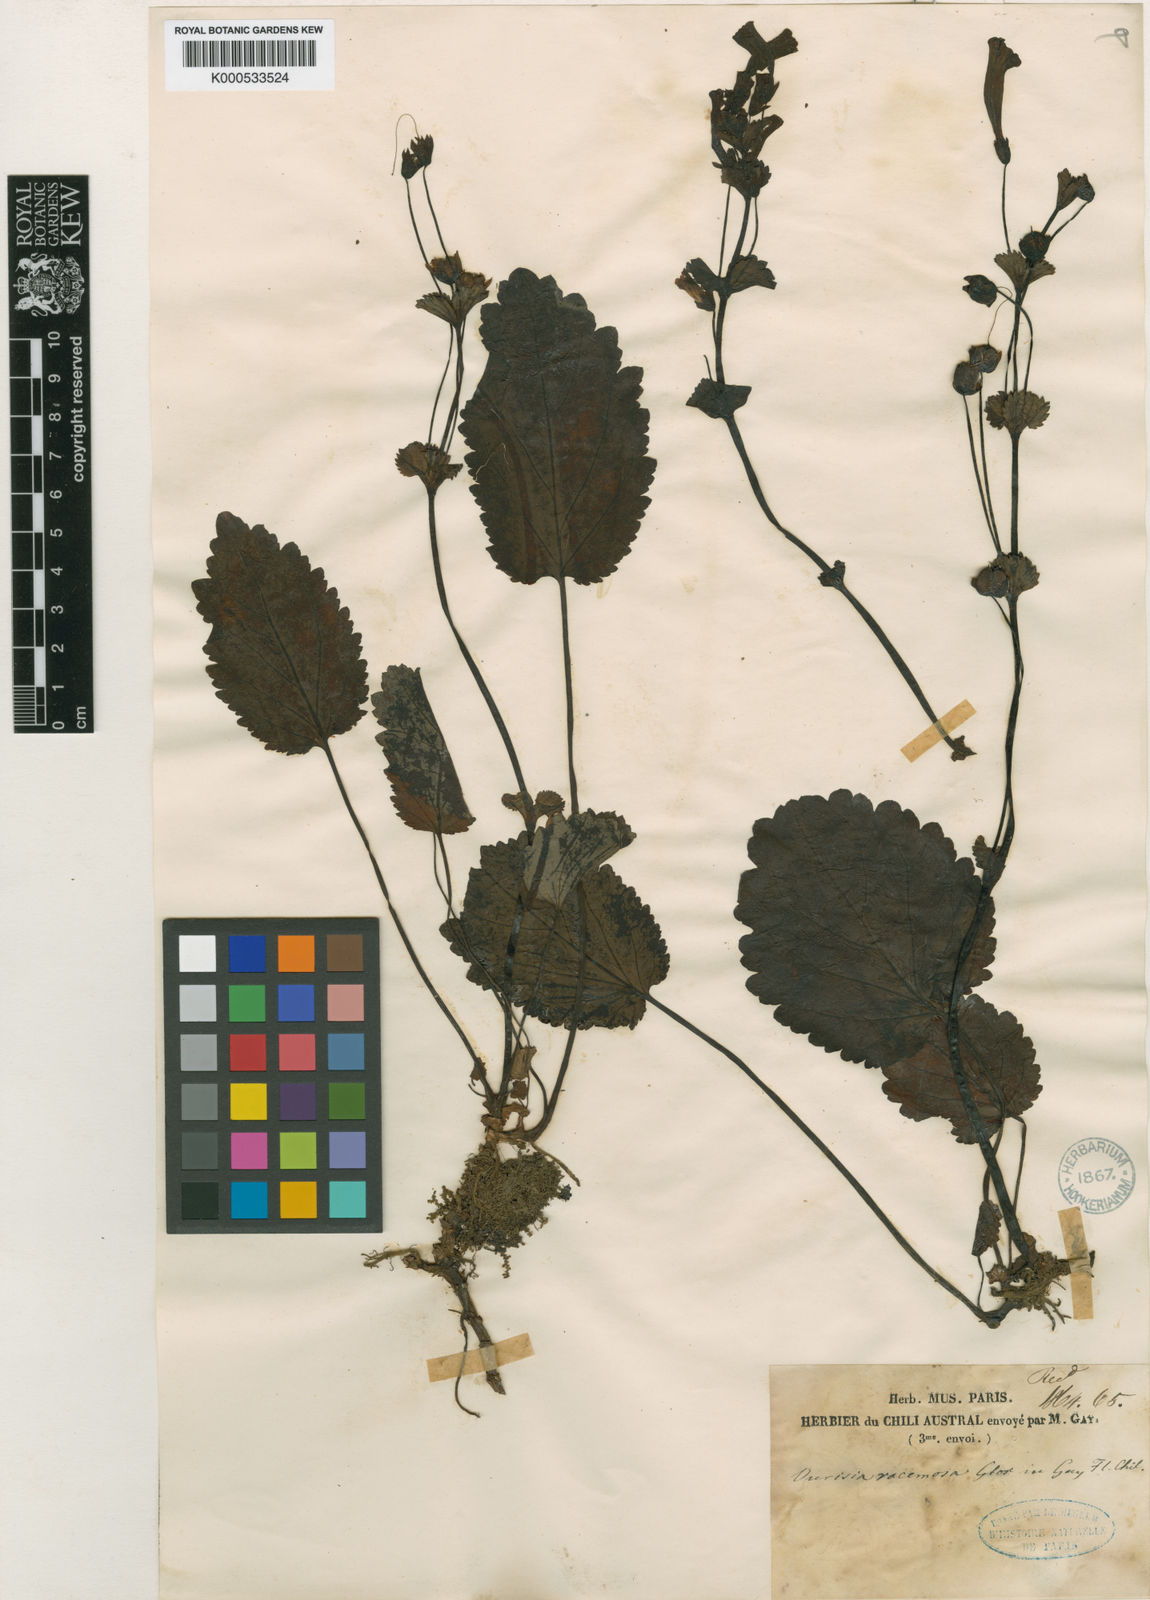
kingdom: Plantae
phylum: Tracheophyta
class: Magnoliopsida
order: Lamiales
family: Plantaginaceae
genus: Ourisia
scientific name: Ourisia ruellioides
